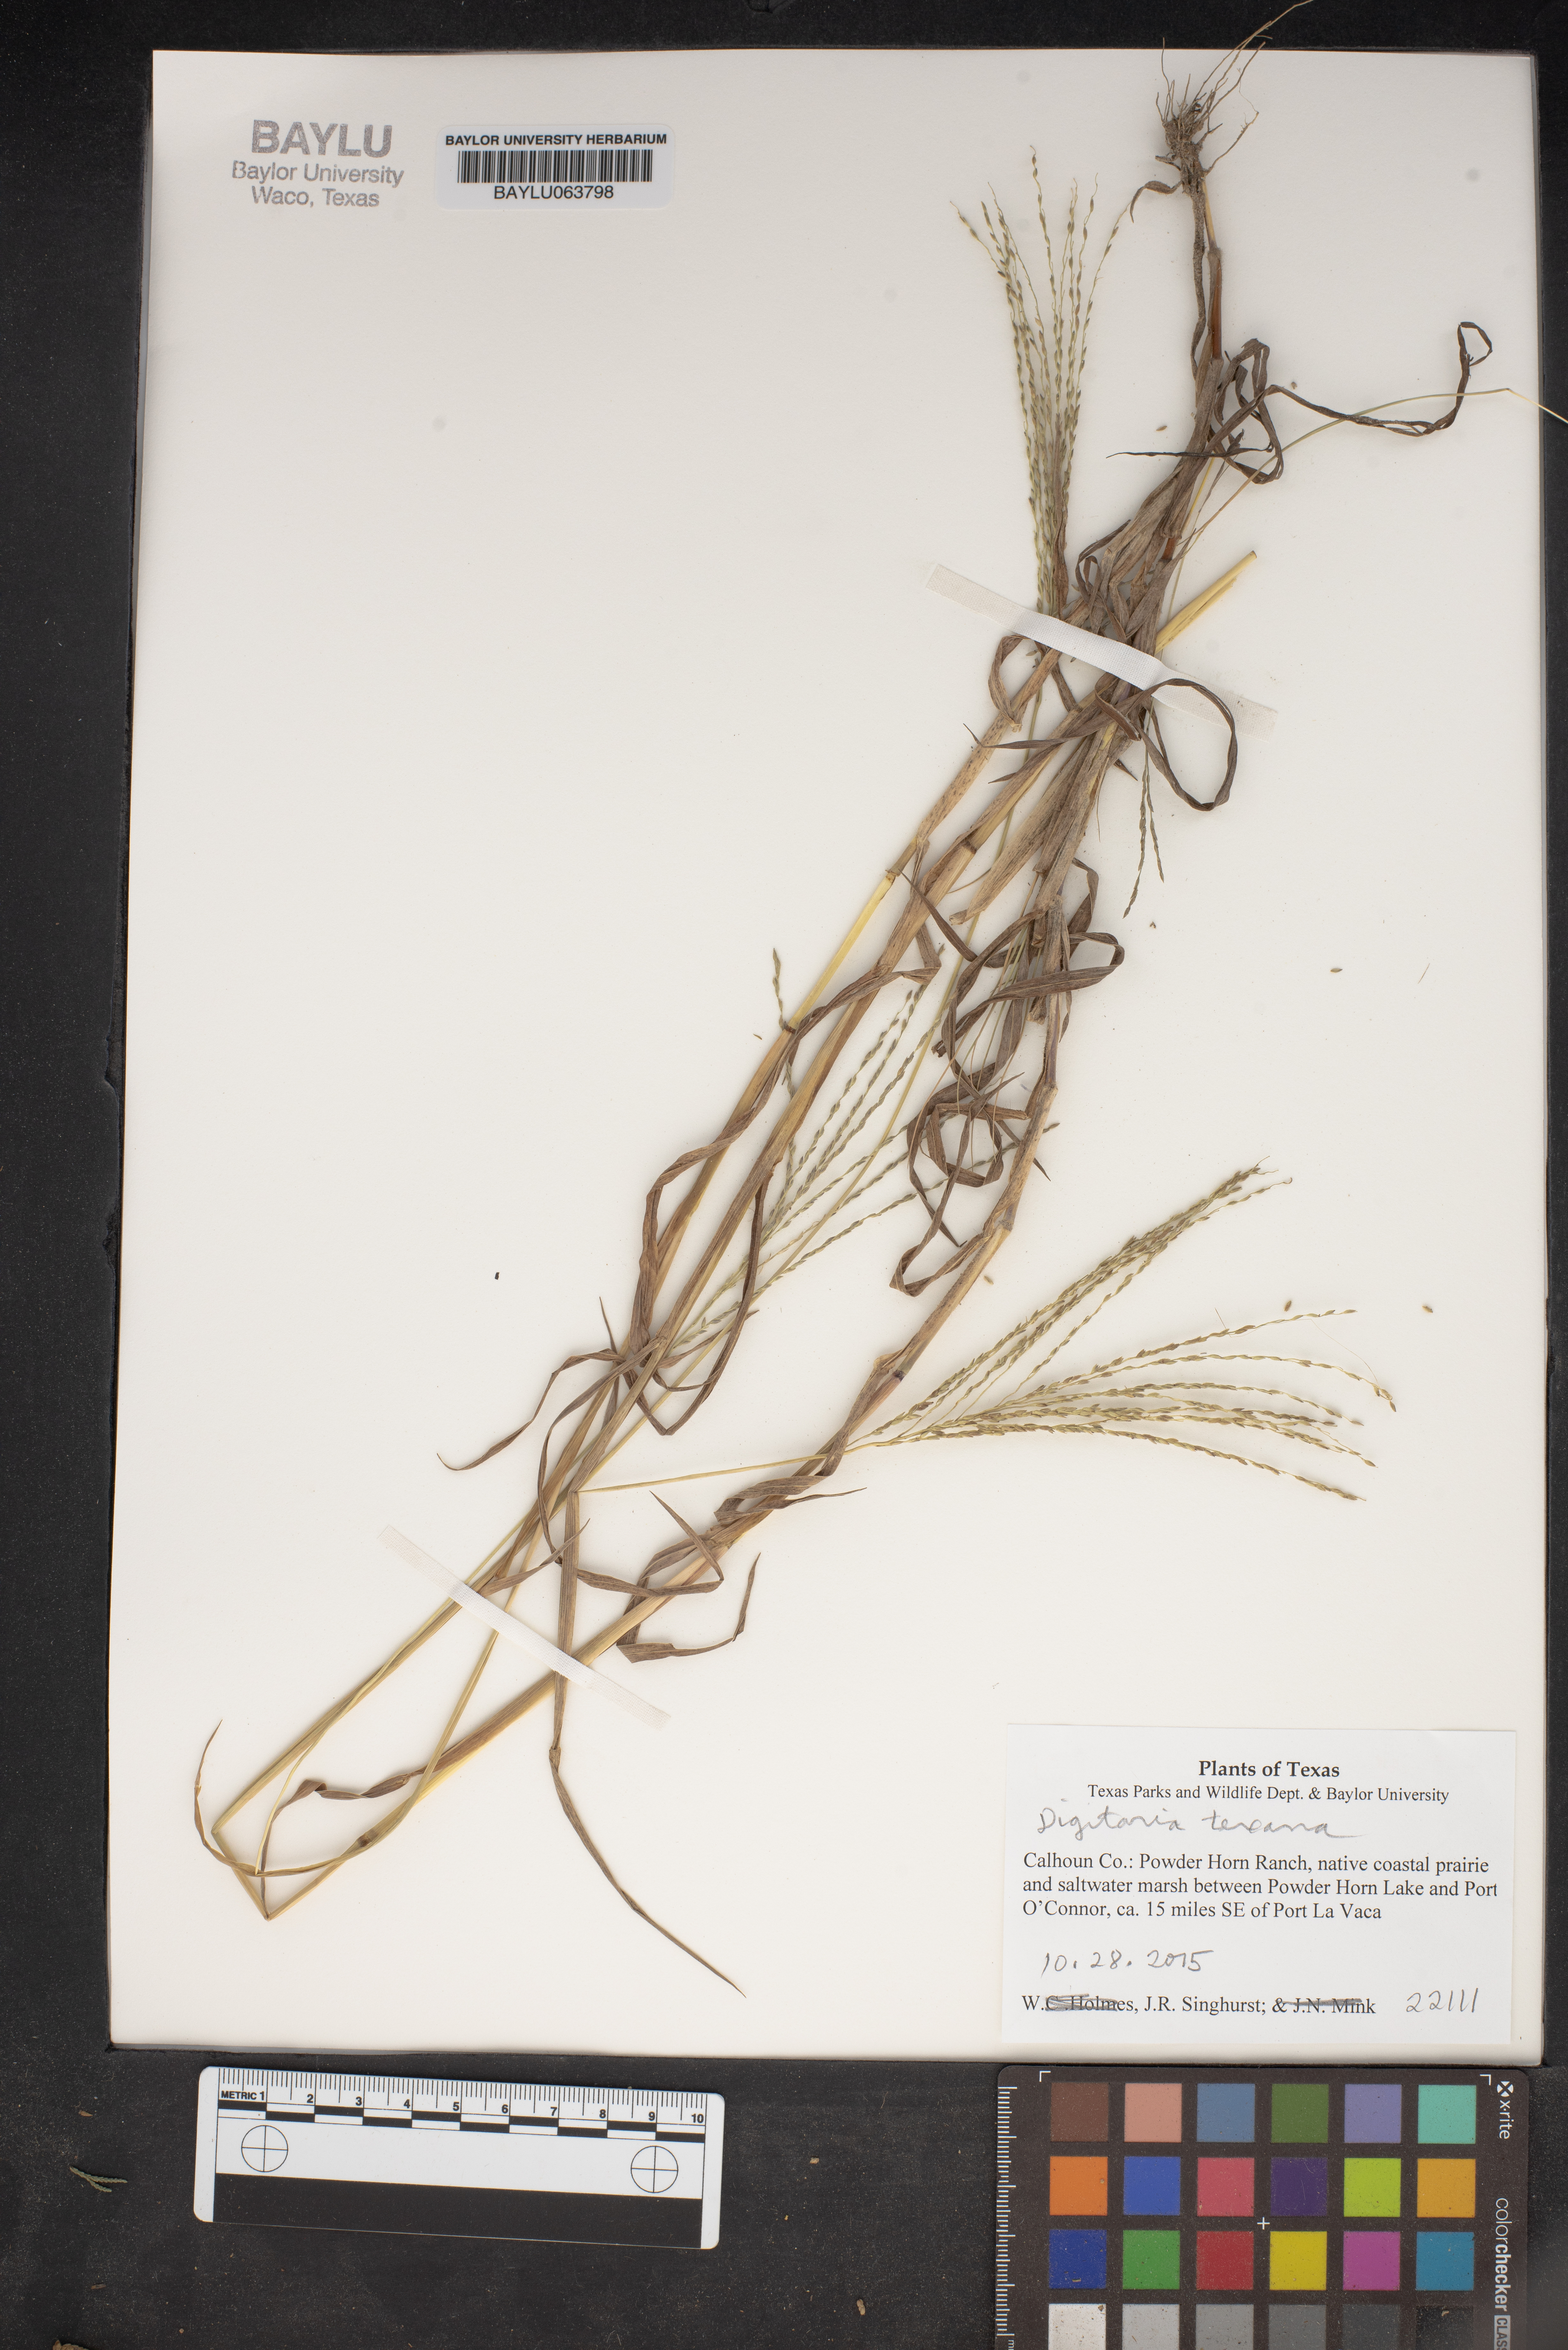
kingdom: Plantae
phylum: Tracheophyta
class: Liliopsida
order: Poales
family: Poaceae
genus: Digitaria
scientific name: Digitaria texana
